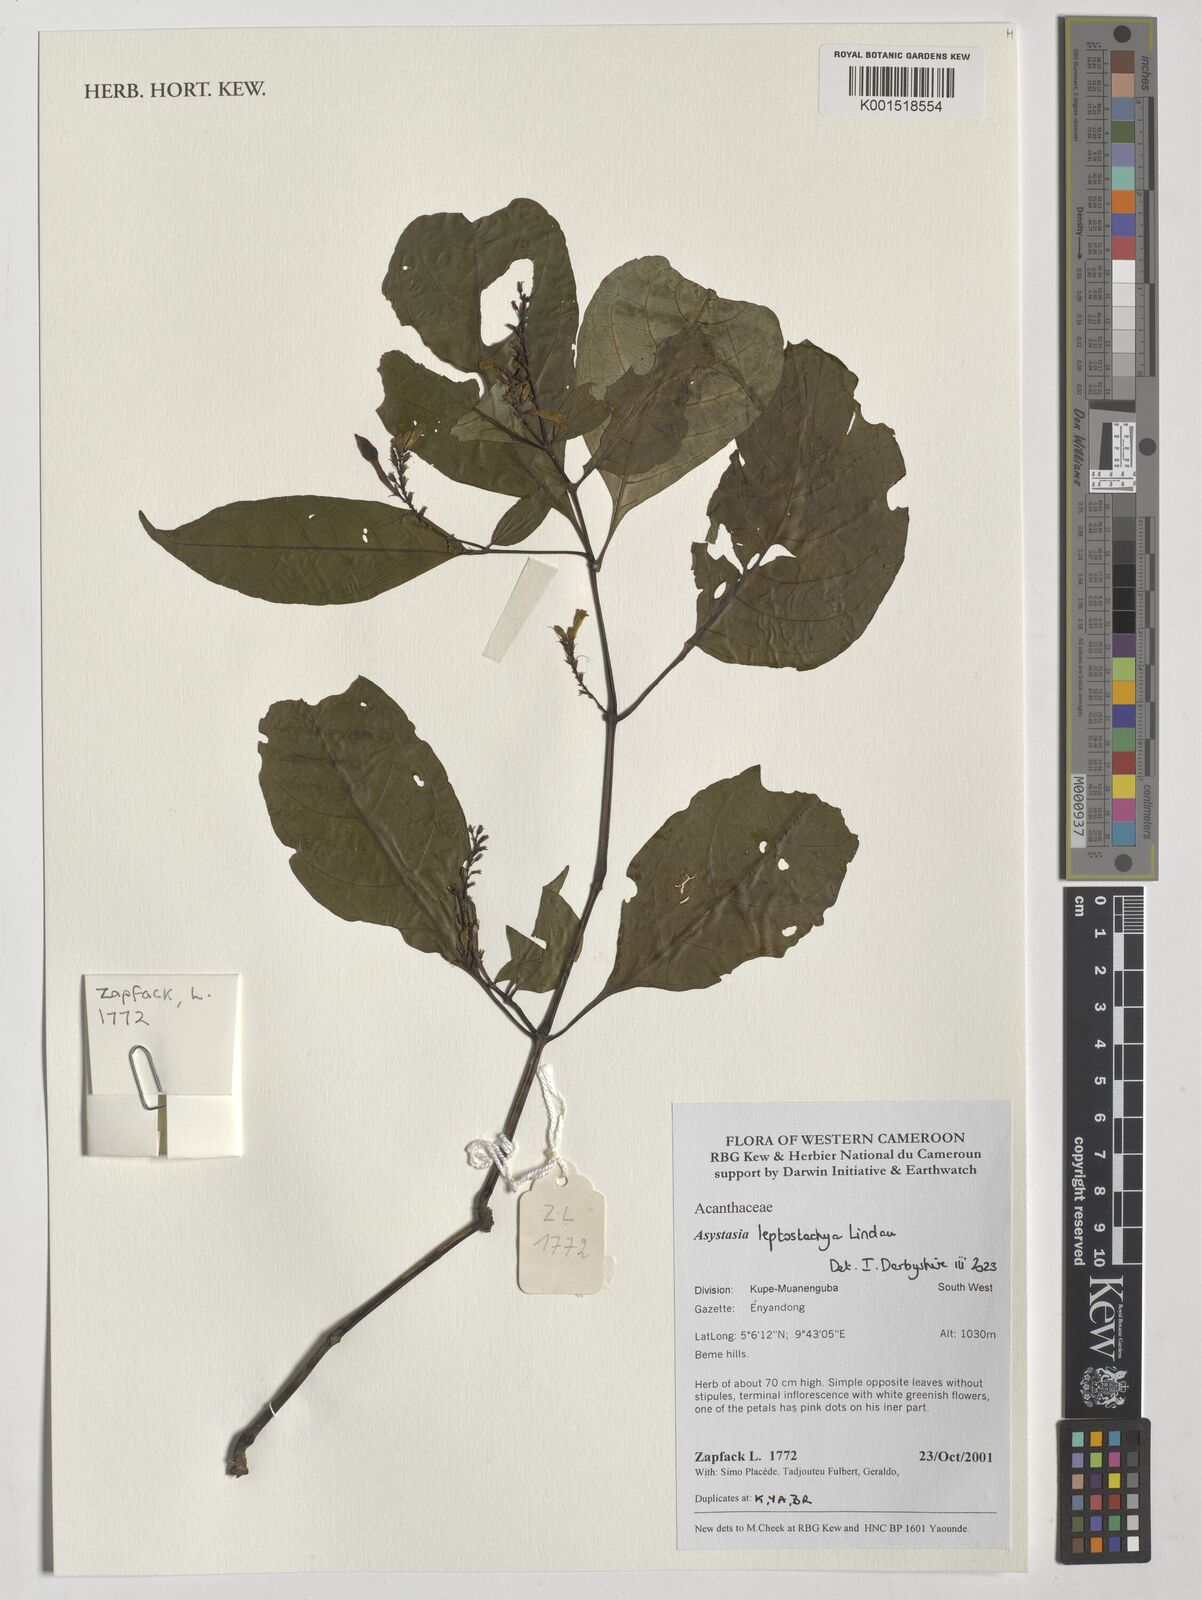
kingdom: Plantae
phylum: Tracheophyta
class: Magnoliopsida
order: Lamiales
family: Acanthaceae
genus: Asystasia
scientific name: Asystasia leptostachya
